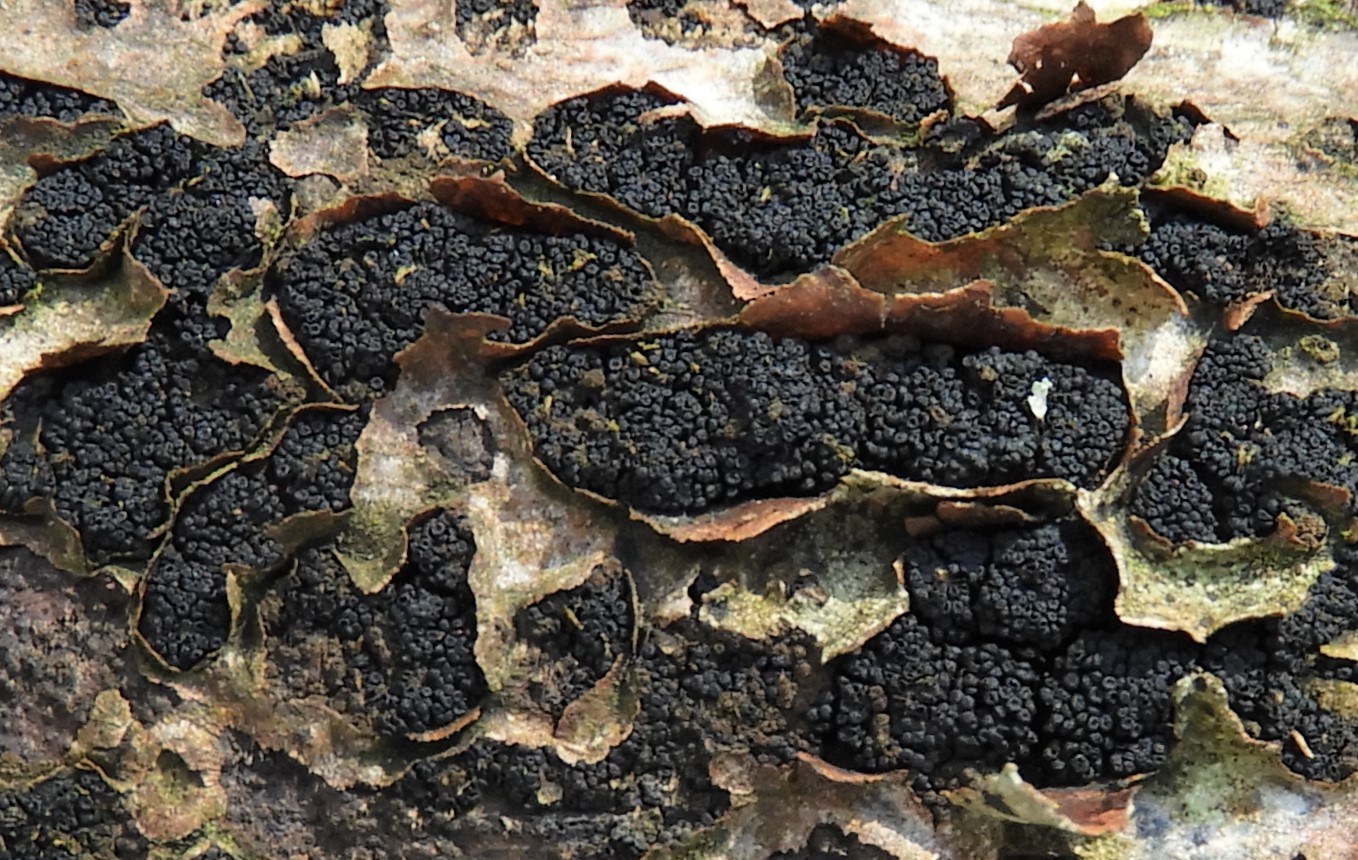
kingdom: Fungi
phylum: Ascomycota
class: Sordariomycetes
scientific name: Sordariomycetes
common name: kernesvampklassen
